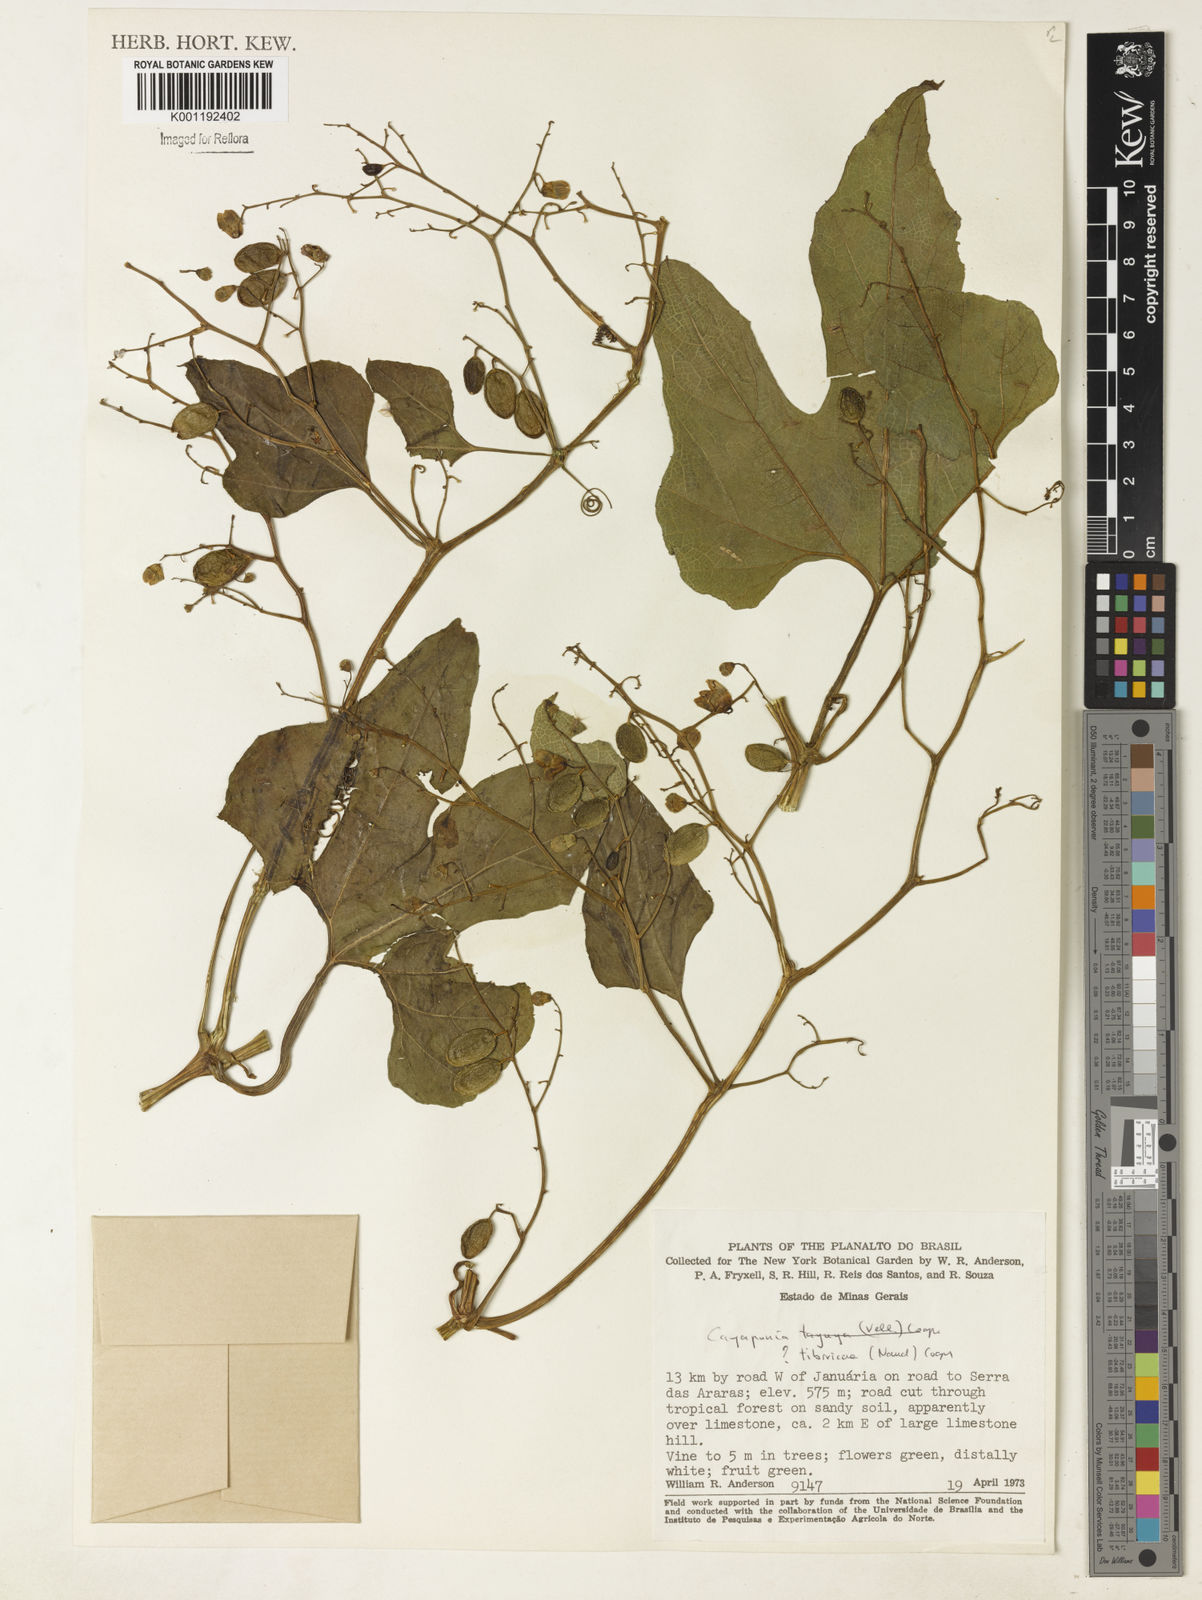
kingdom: Plantae
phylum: Tracheophyta
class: Magnoliopsida
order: Cucurbitales
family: Cucurbitaceae
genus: Cayaponia
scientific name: Cayaponia tayuya
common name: Tayuya
